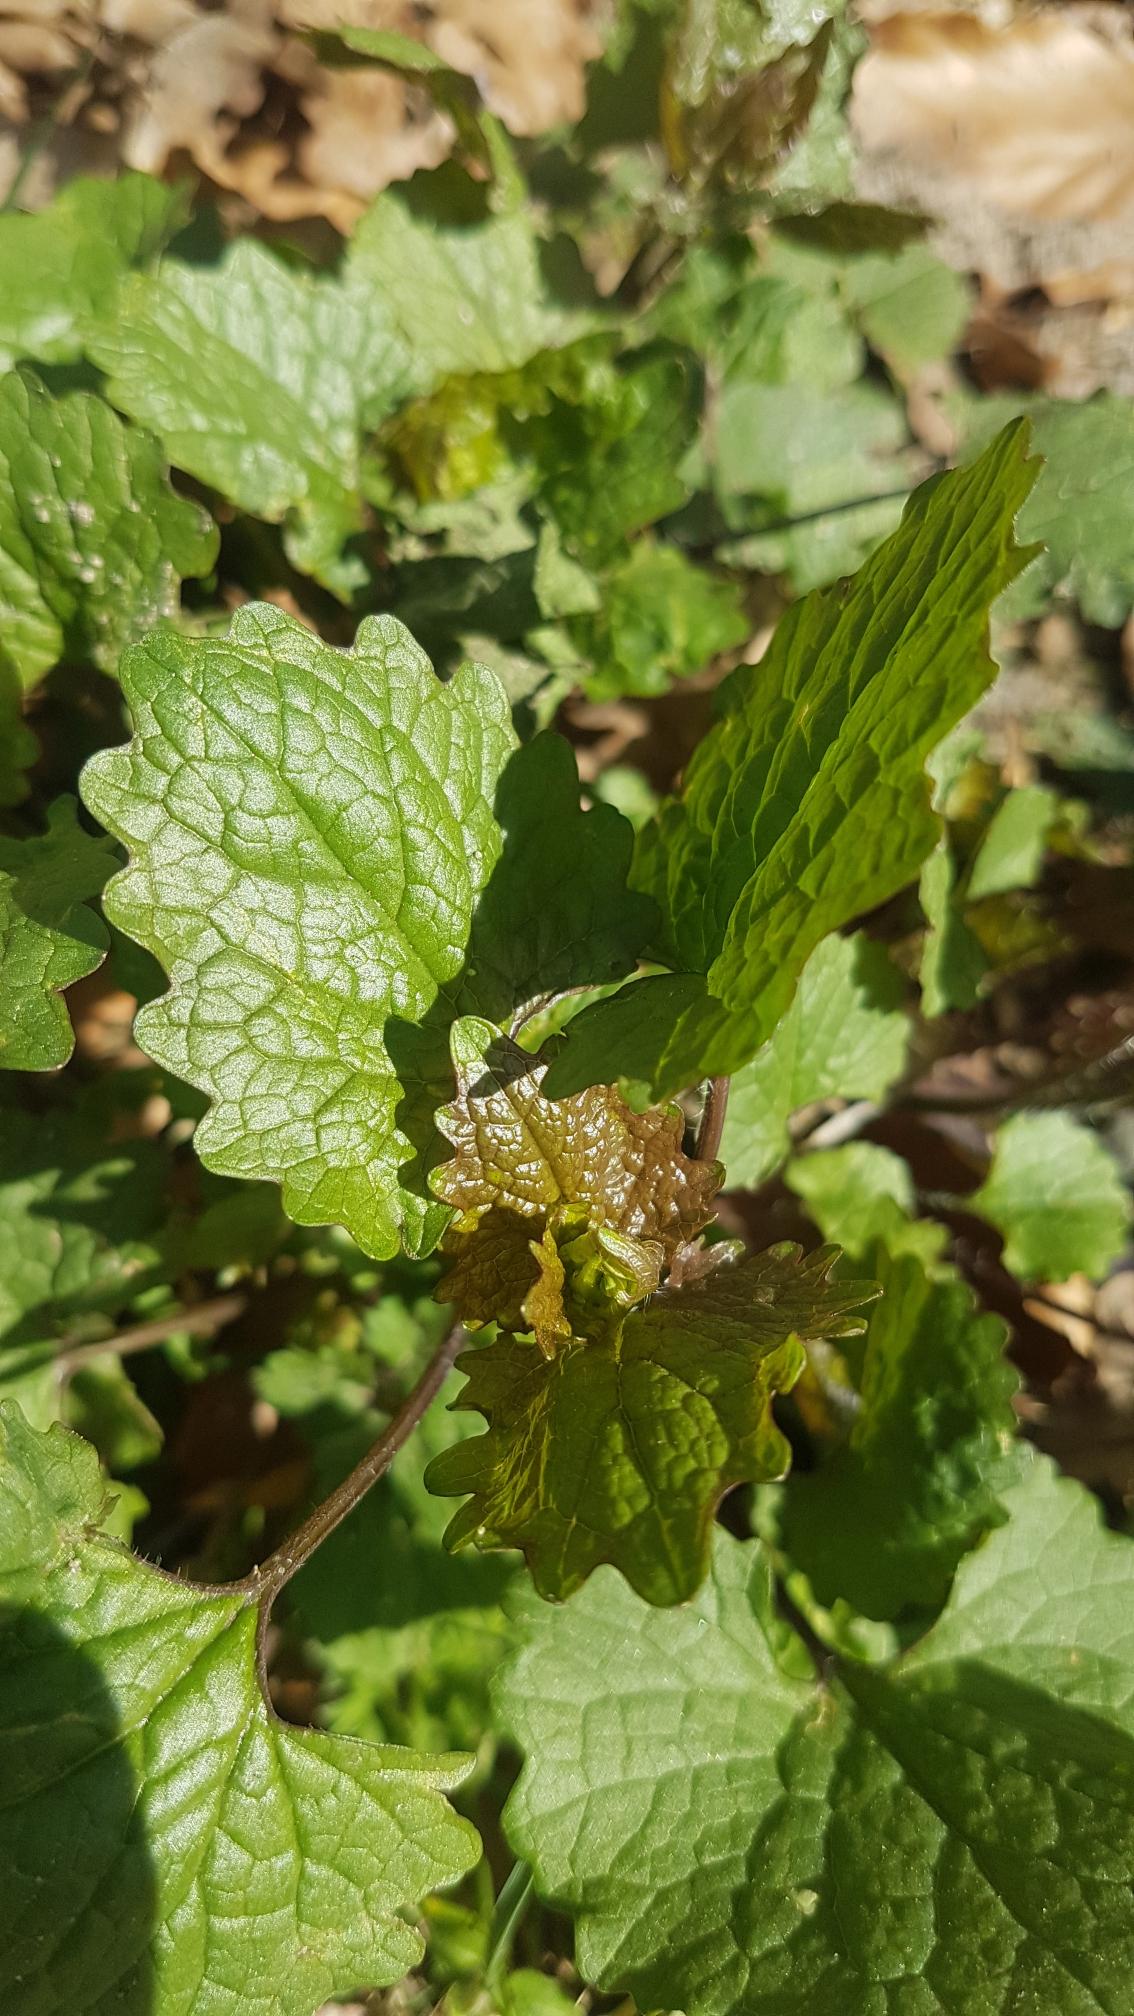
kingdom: Plantae
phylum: Tracheophyta
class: Magnoliopsida
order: Brassicales
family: Brassicaceae
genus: Alliaria
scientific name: Alliaria petiolata
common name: Løgkarse
